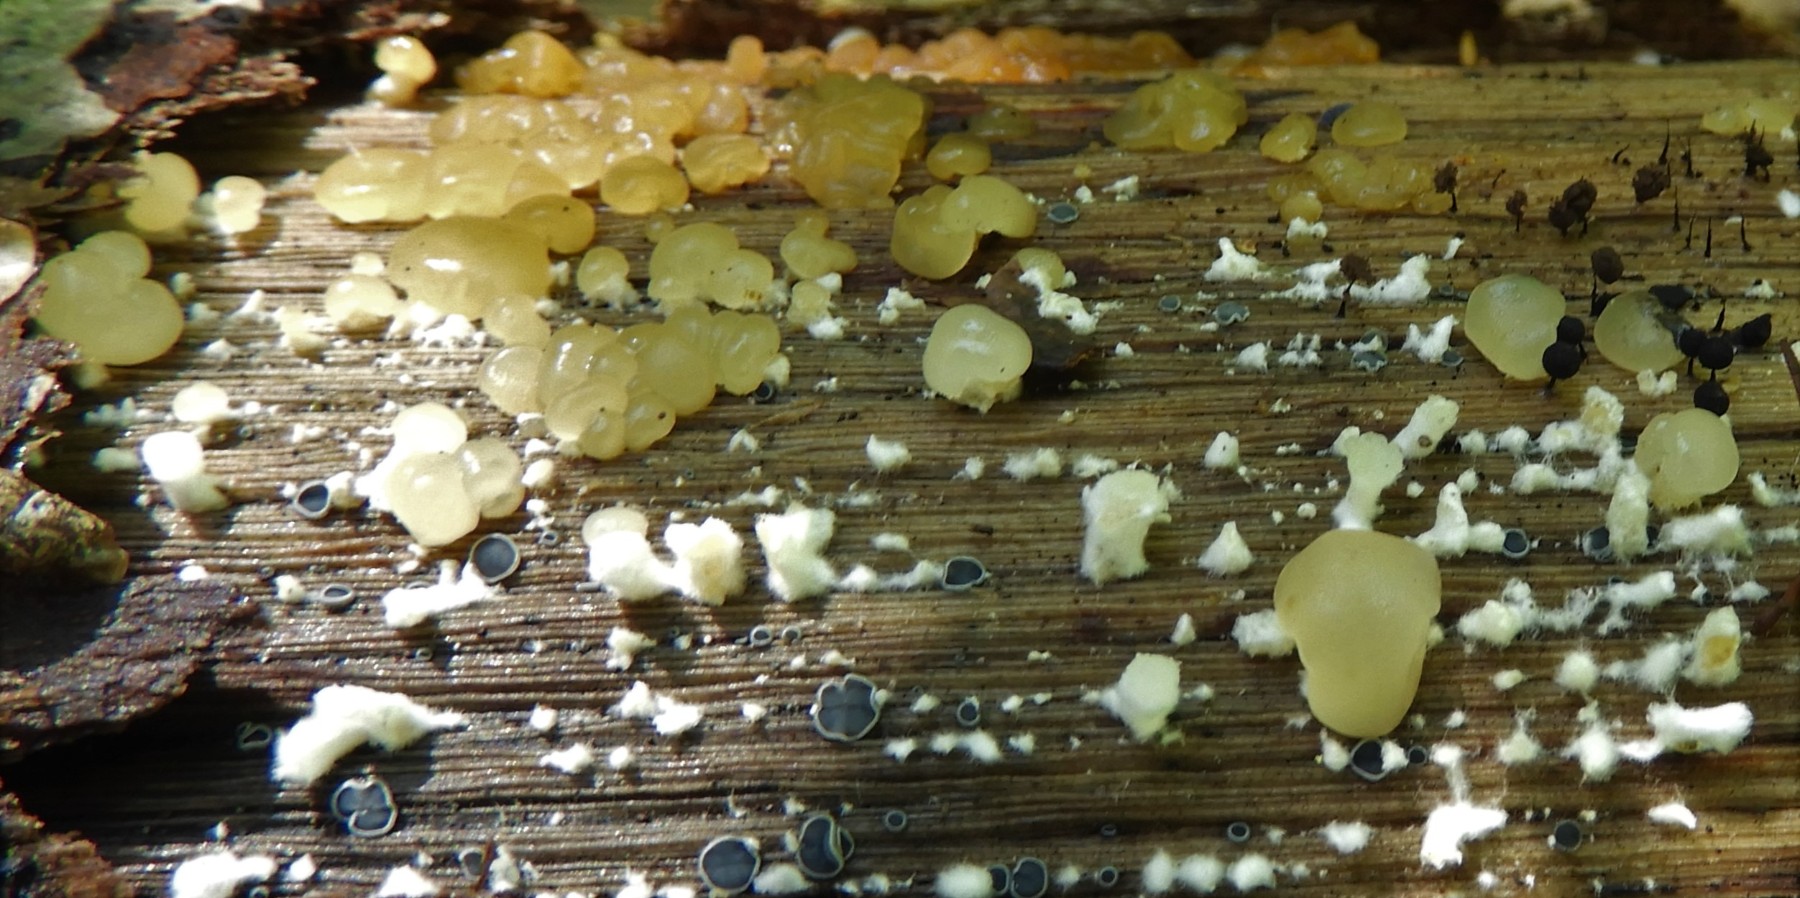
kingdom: Fungi
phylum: Basidiomycota
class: Dacrymycetes
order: Dacrymycetales
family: Dacrymycetaceae
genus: Dacrymyces
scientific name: Dacrymyces capitatus
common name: stilket tåresvamp
